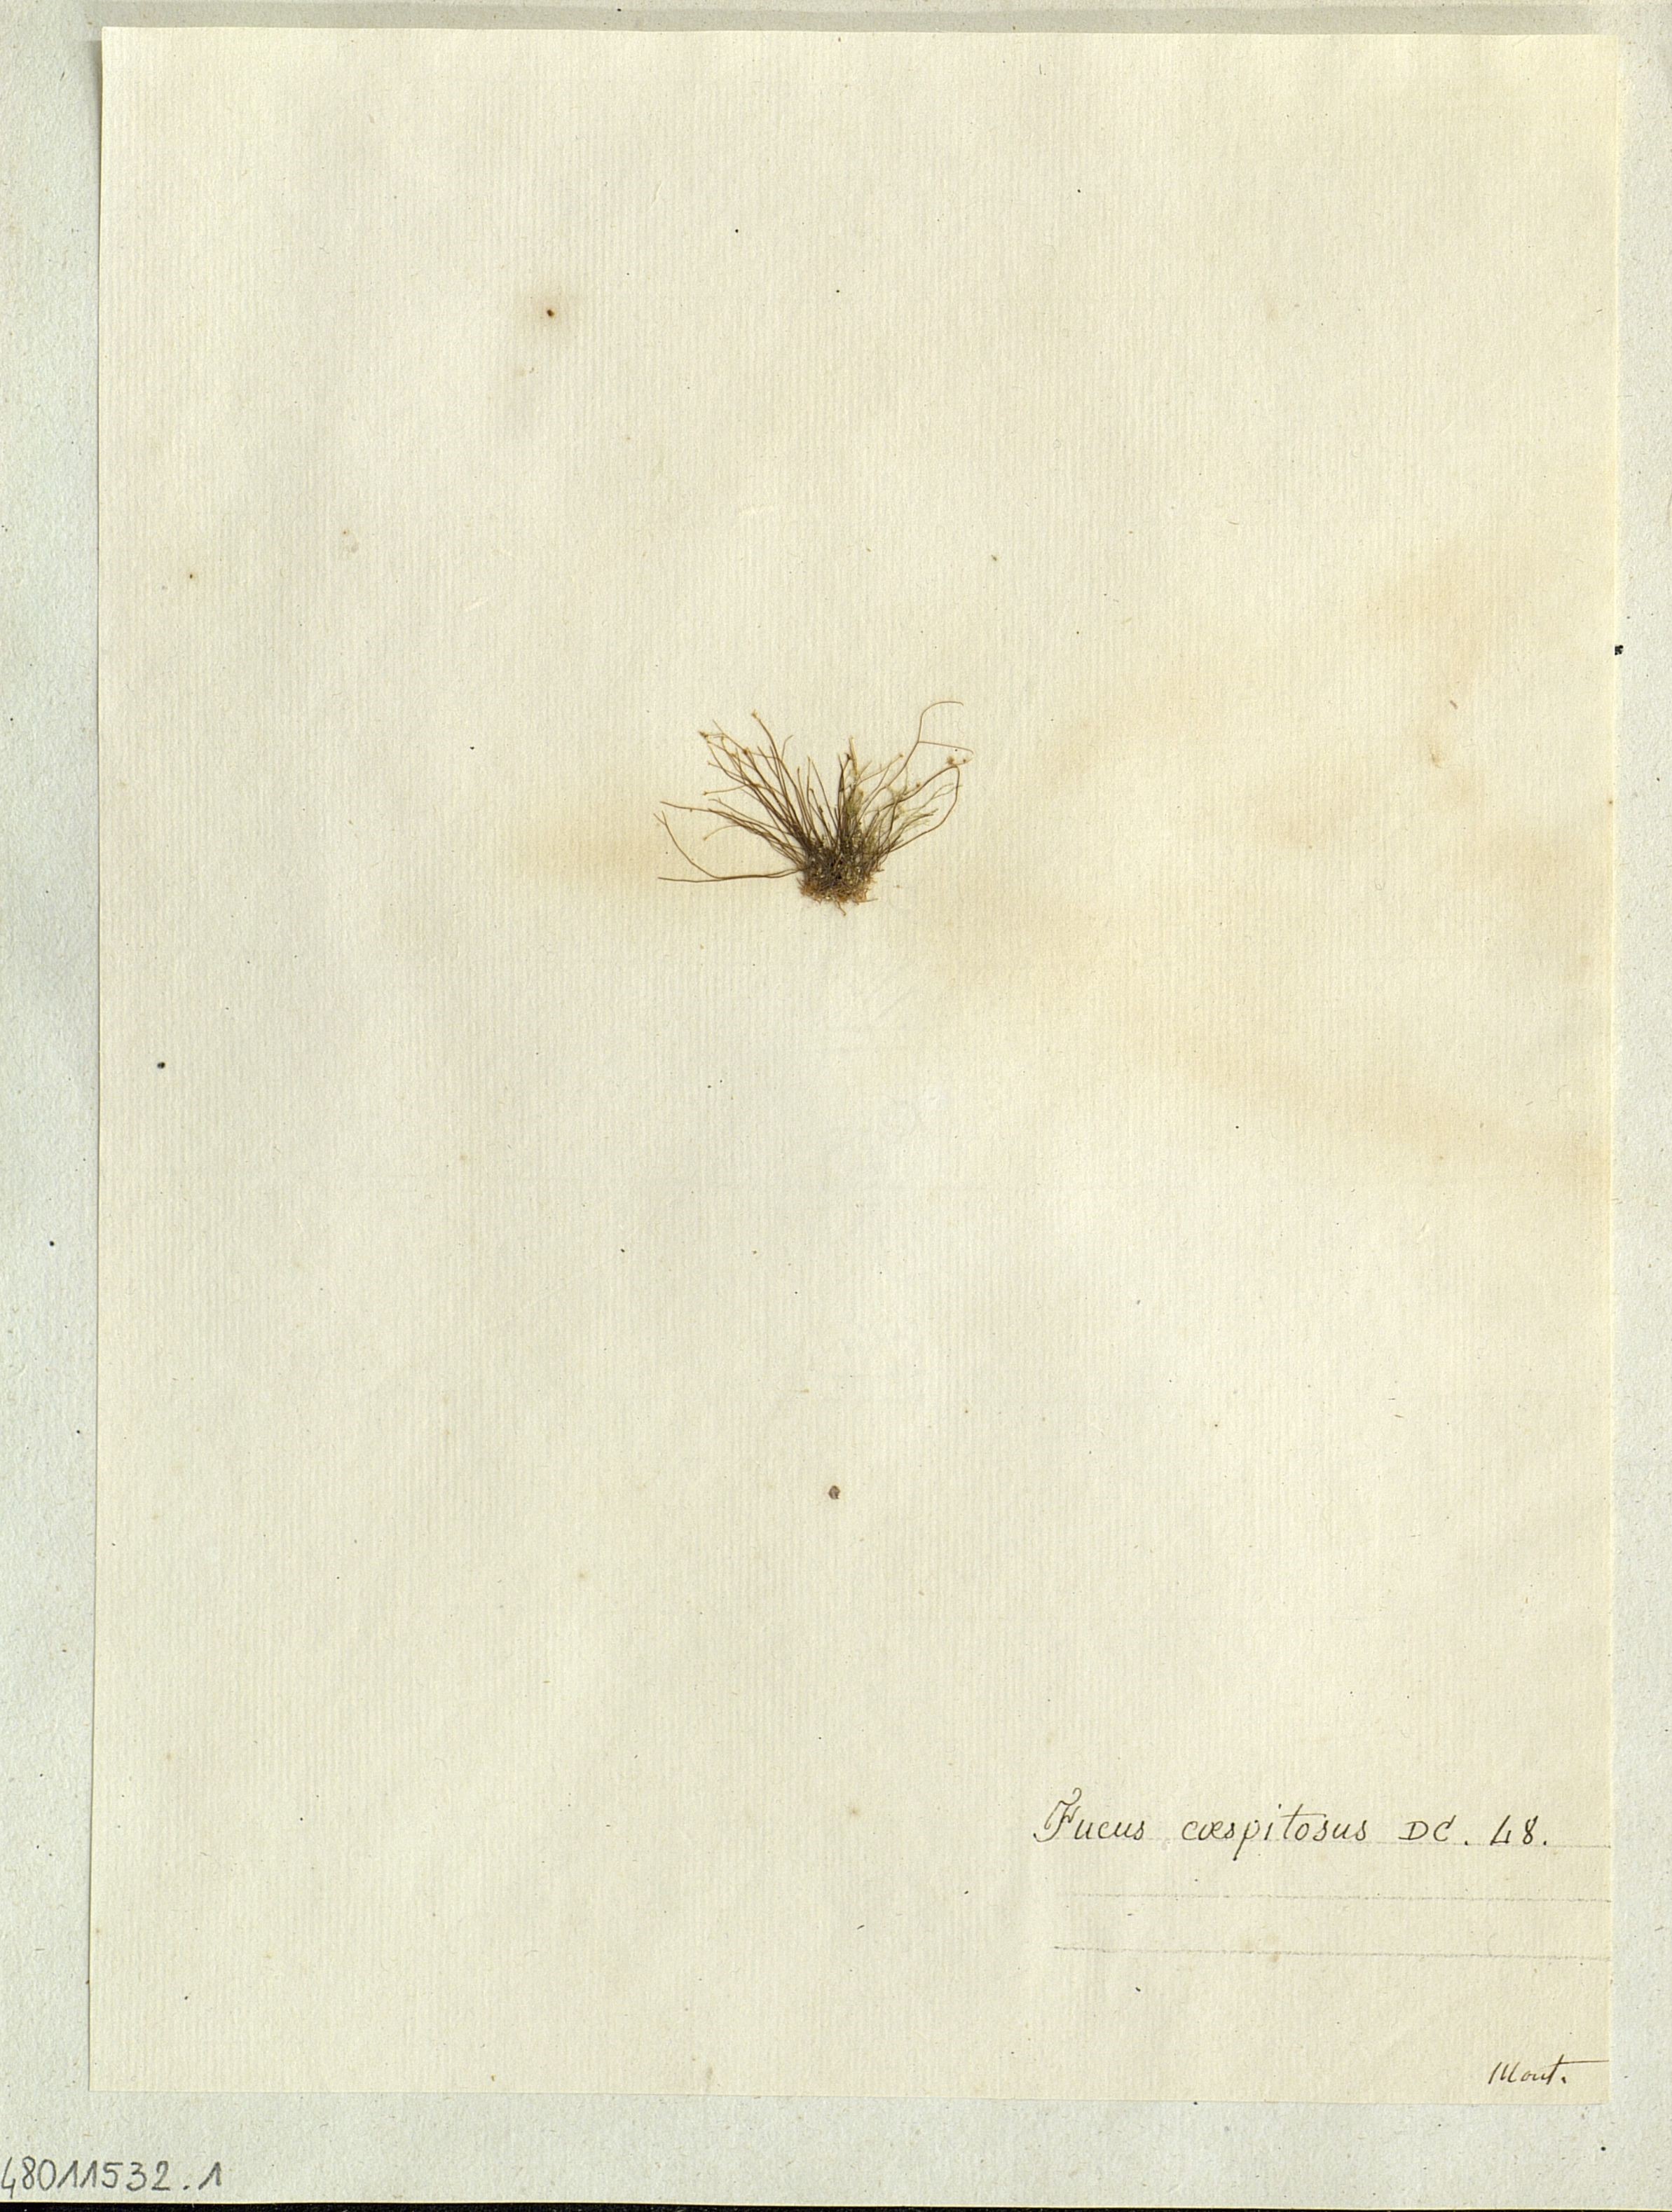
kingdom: Chromista
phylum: Ochrophyta
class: Phaeophyceae
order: Fucales
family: Fucaceae
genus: Fucus
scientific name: Fucus
